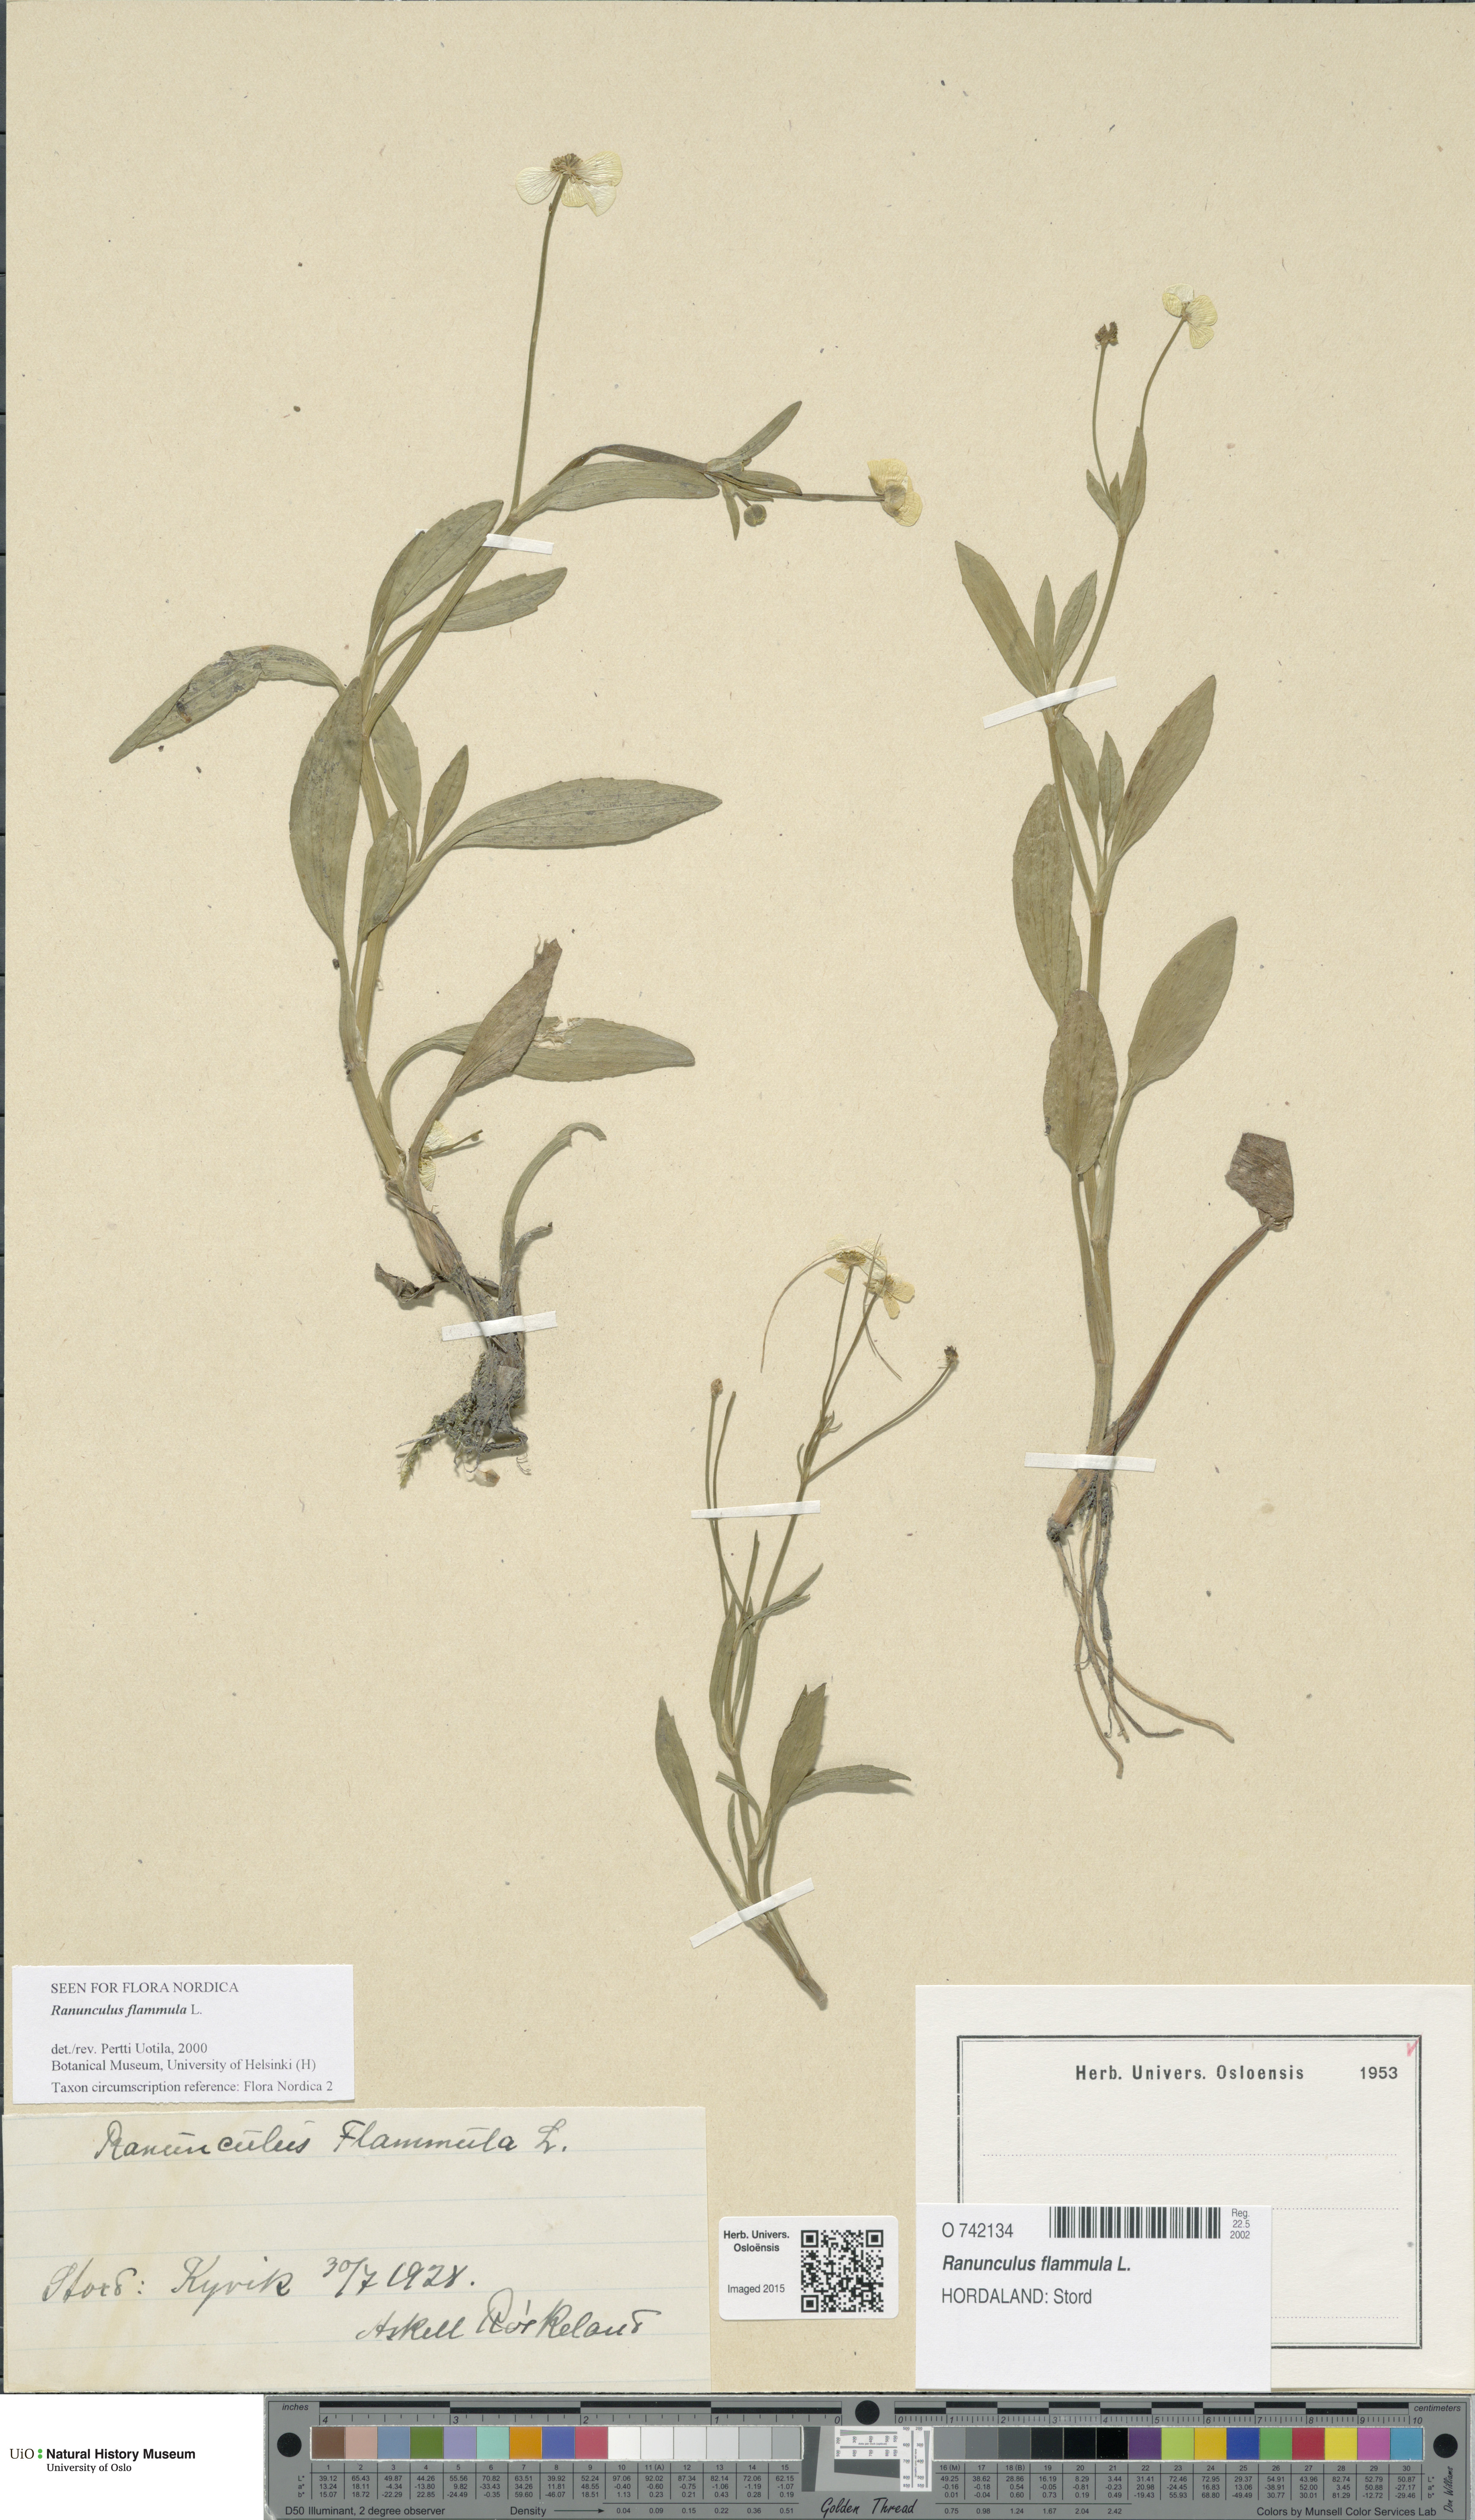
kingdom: Plantae
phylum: Tracheophyta
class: Magnoliopsida
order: Ranunculales
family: Ranunculaceae
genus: Ranunculus
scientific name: Ranunculus flammula
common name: Lesser spearwort
